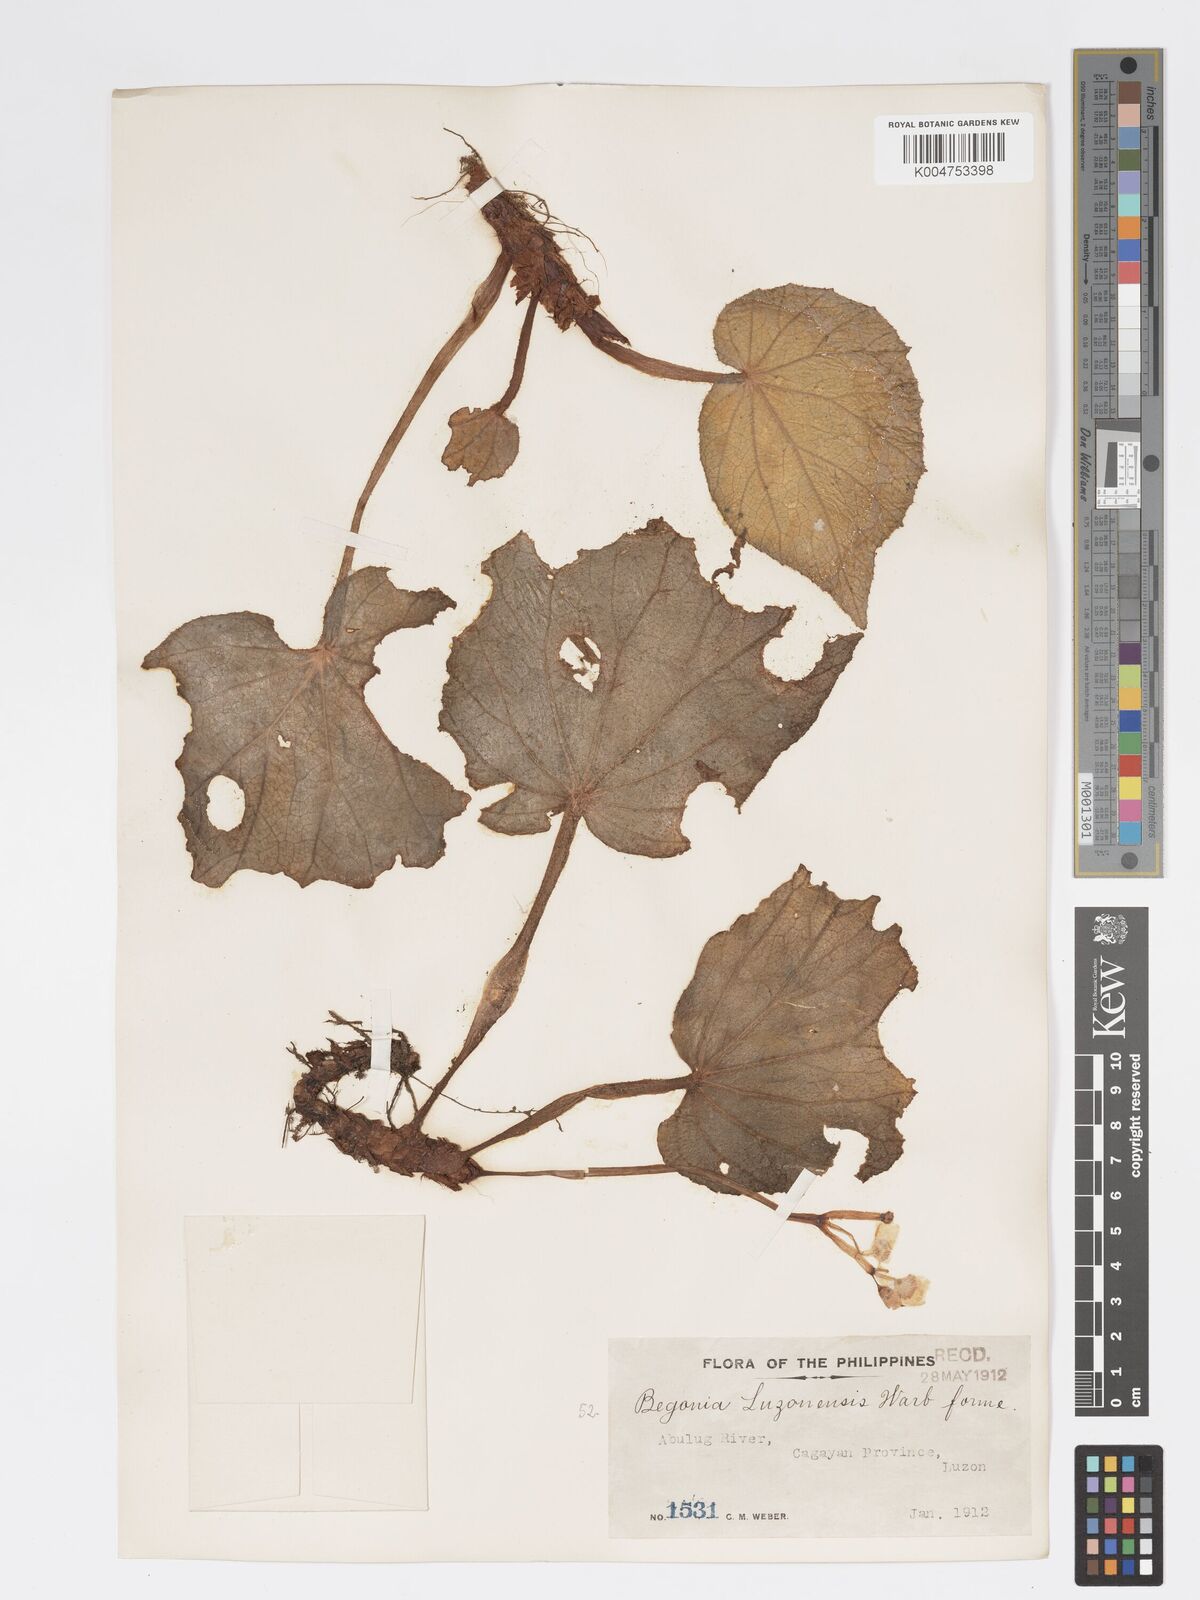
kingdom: Plantae
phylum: Tracheophyta
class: Magnoliopsida
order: Cucurbitales
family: Begoniaceae
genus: Begonia
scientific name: Begonia luzonensis
